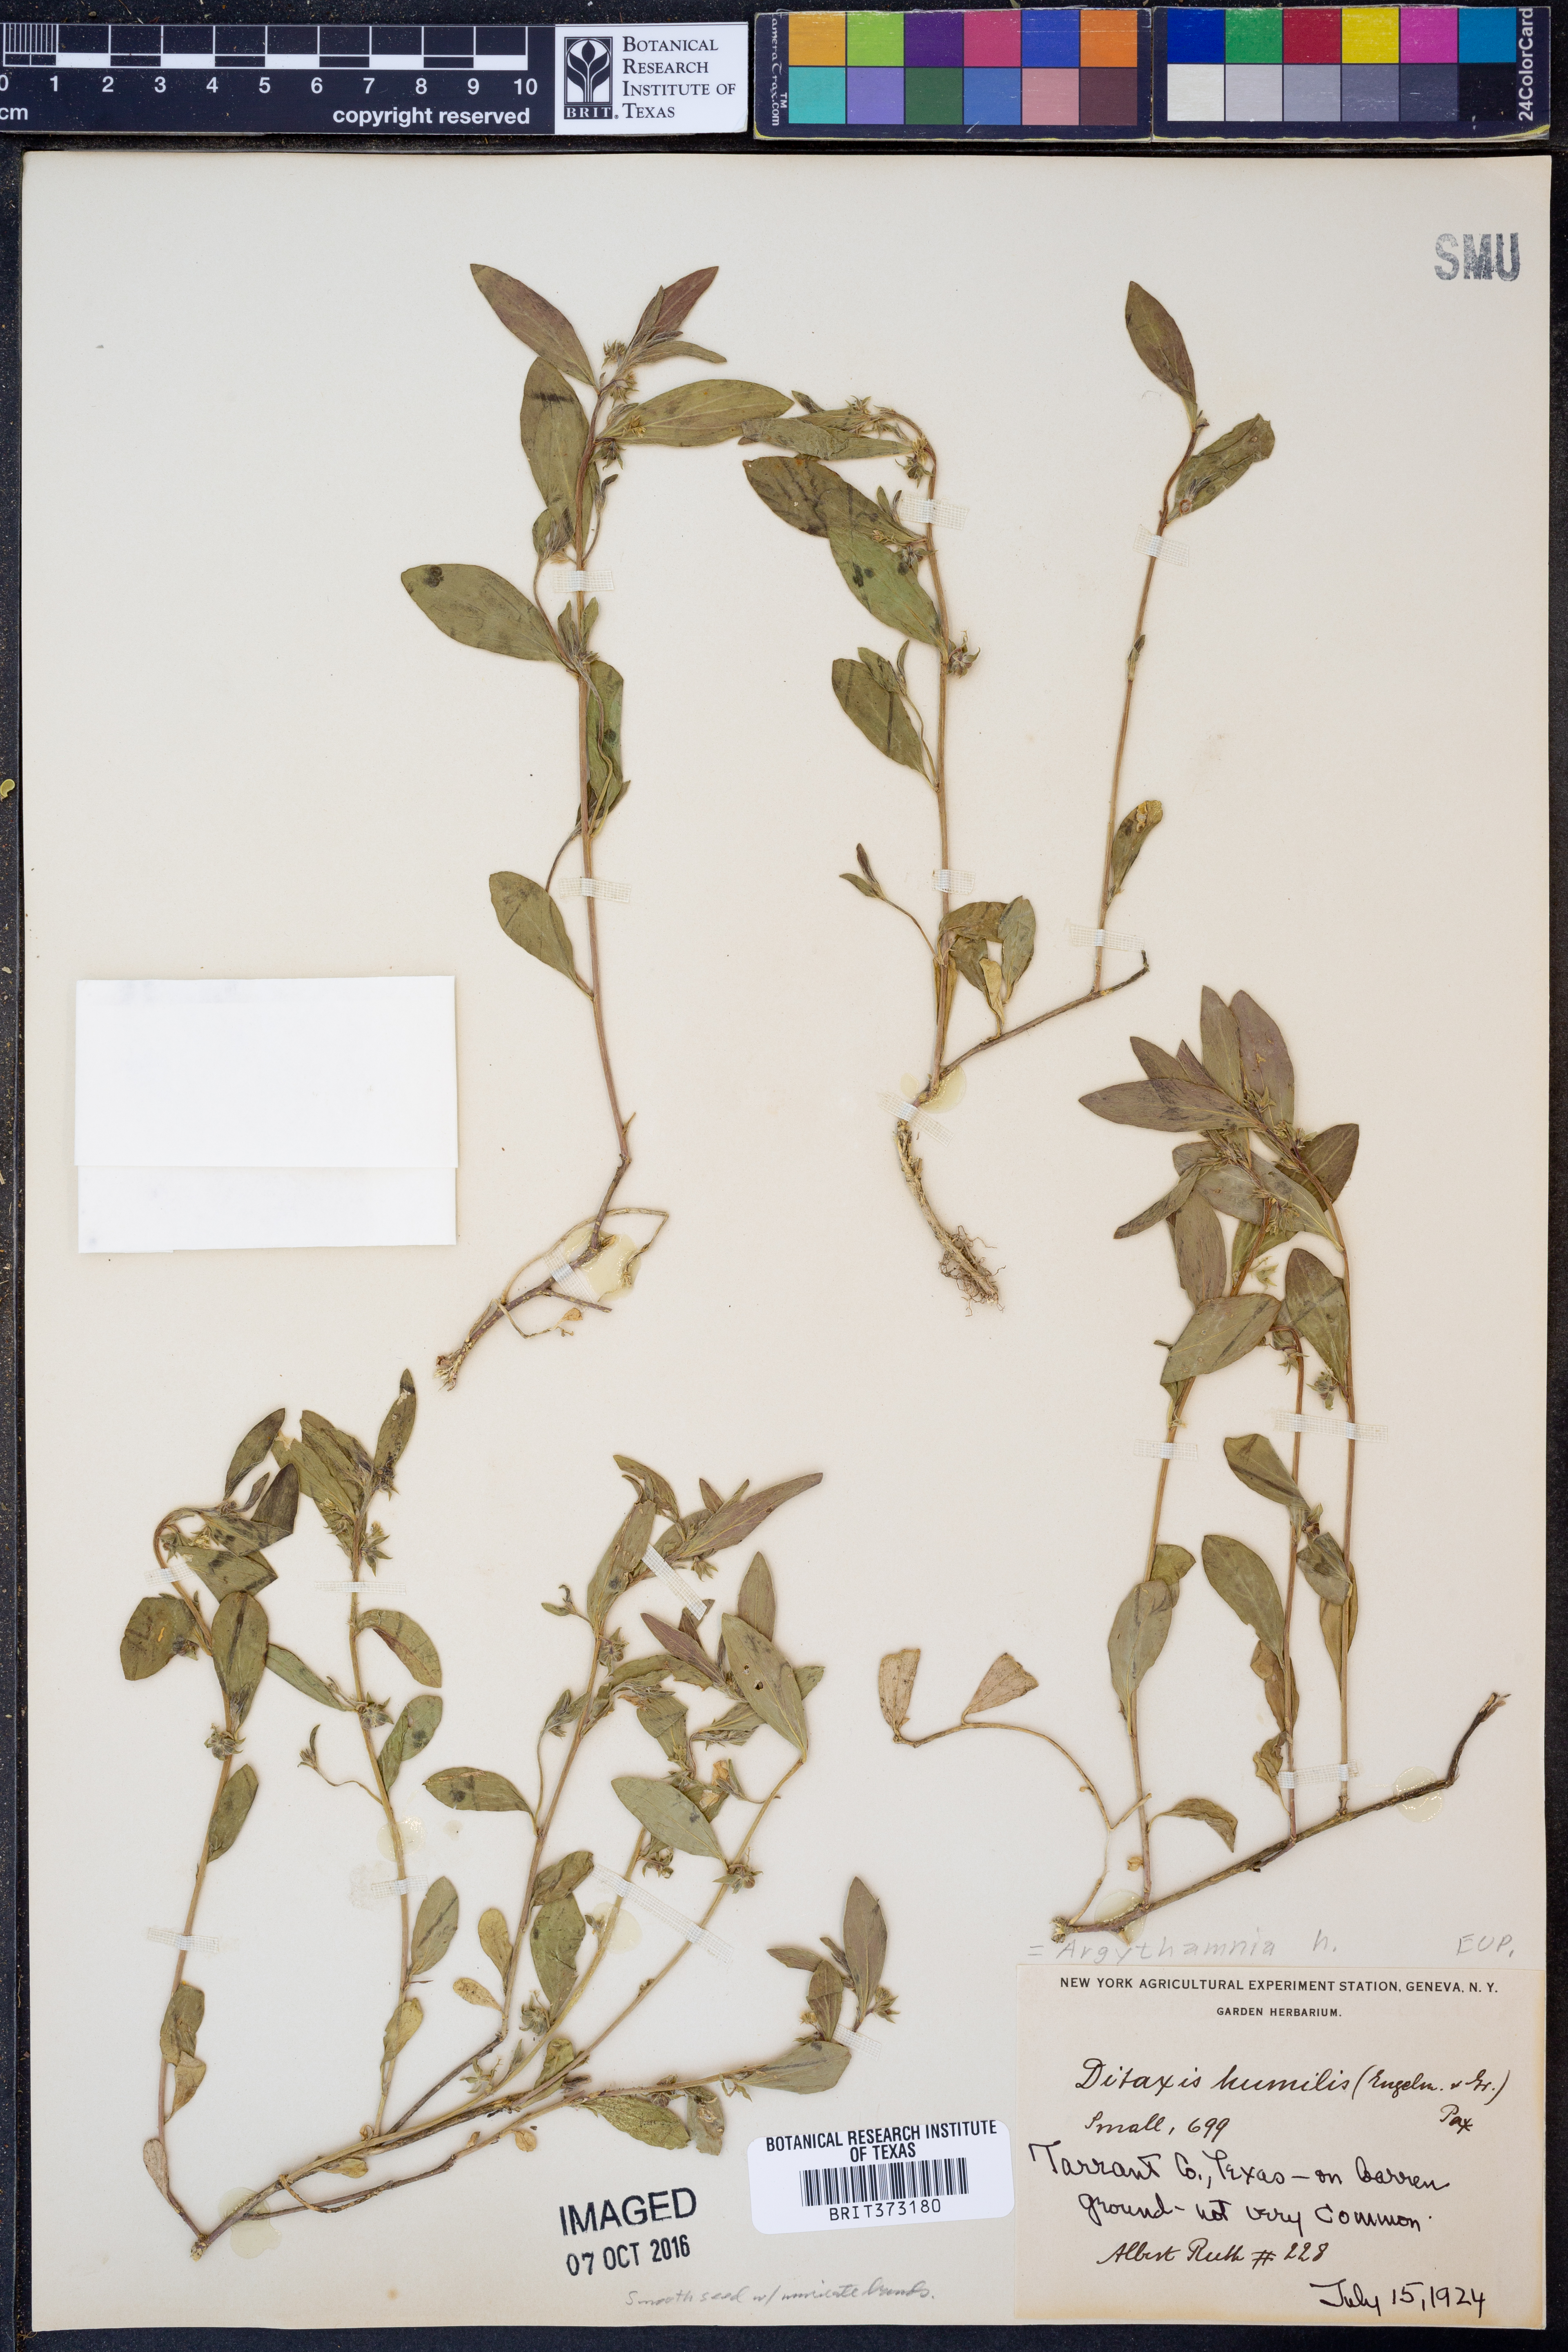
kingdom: Plantae
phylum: Tracheophyta
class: Magnoliopsida
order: Malpighiales
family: Euphorbiaceae
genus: Ditaxis
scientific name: Ditaxis humilis
